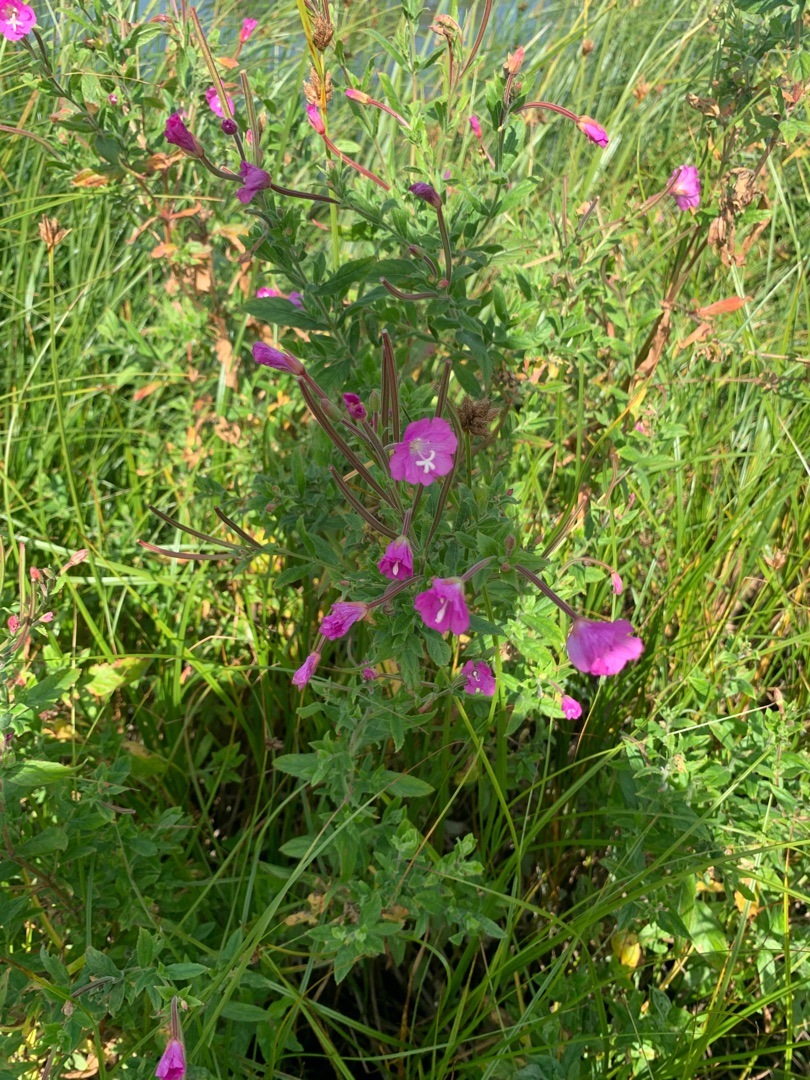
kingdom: Plantae
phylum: Tracheophyta
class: Magnoliopsida
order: Myrtales
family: Onagraceae
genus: Epilobium
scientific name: Epilobium hirsutum
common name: Lådden dueurt
